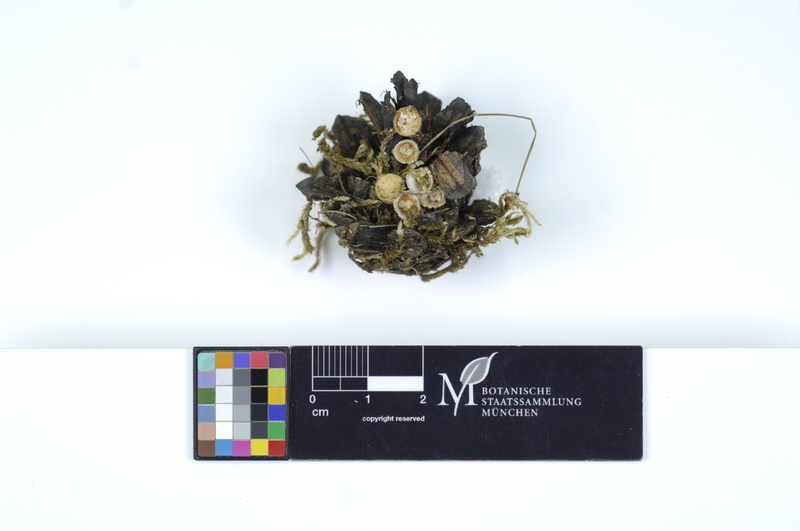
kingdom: Plantae
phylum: Tracheophyta
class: Pinopsida
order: Pinales
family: Pinaceae
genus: Pinus
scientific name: Pinus
